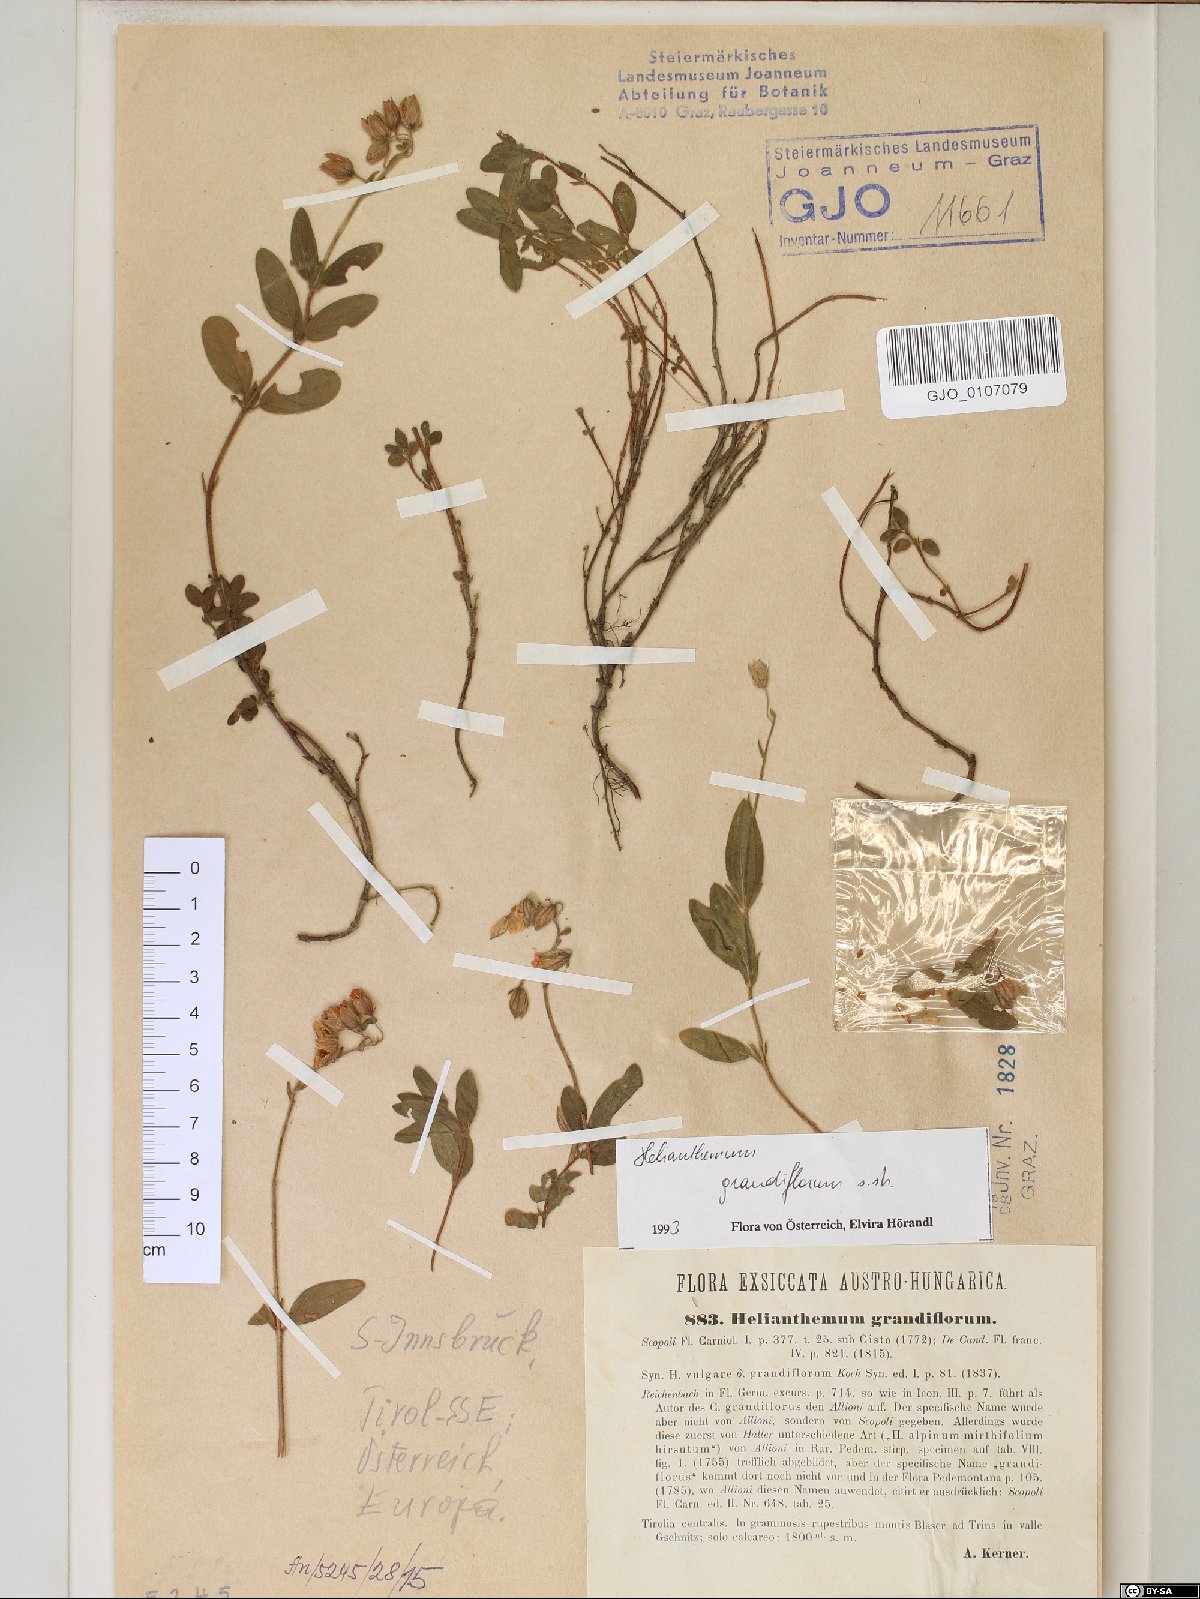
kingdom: Plantae
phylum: Tracheophyta
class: Magnoliopsida
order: Malvales
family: Cistaceae
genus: Helianthemum
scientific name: Helianthemum nummularium
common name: Common rock-rose
